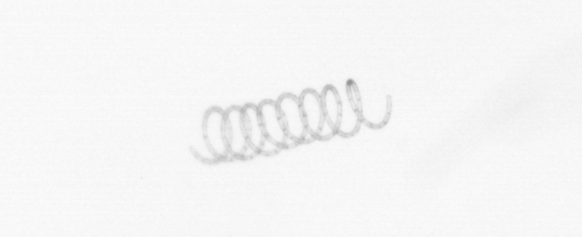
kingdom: Chromista
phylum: Ochrophyta
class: Bacillariophyceae
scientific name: Bacillariophyceae
